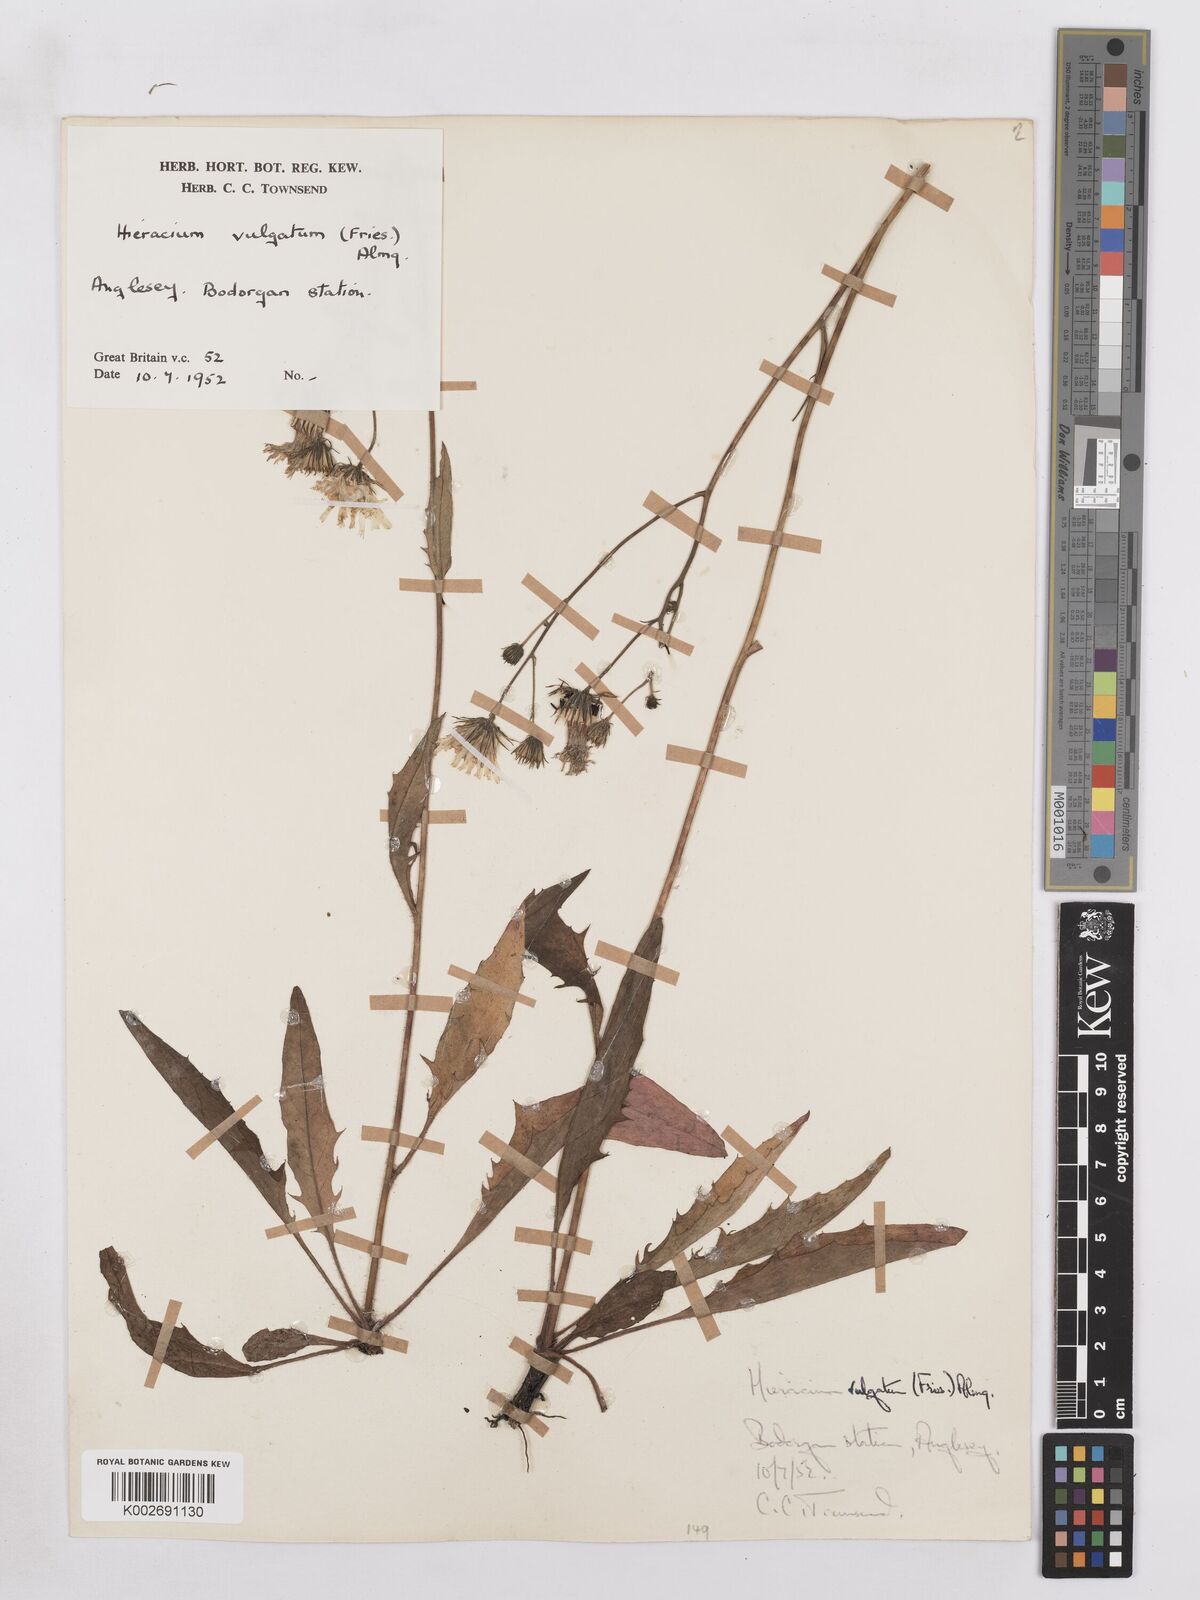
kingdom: Plantae
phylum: Tracheophyta
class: Magnoliopsida
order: Asterales
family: Asteraceae
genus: Hieracium
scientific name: Hieracium lachenalii
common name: Common hawkweed
